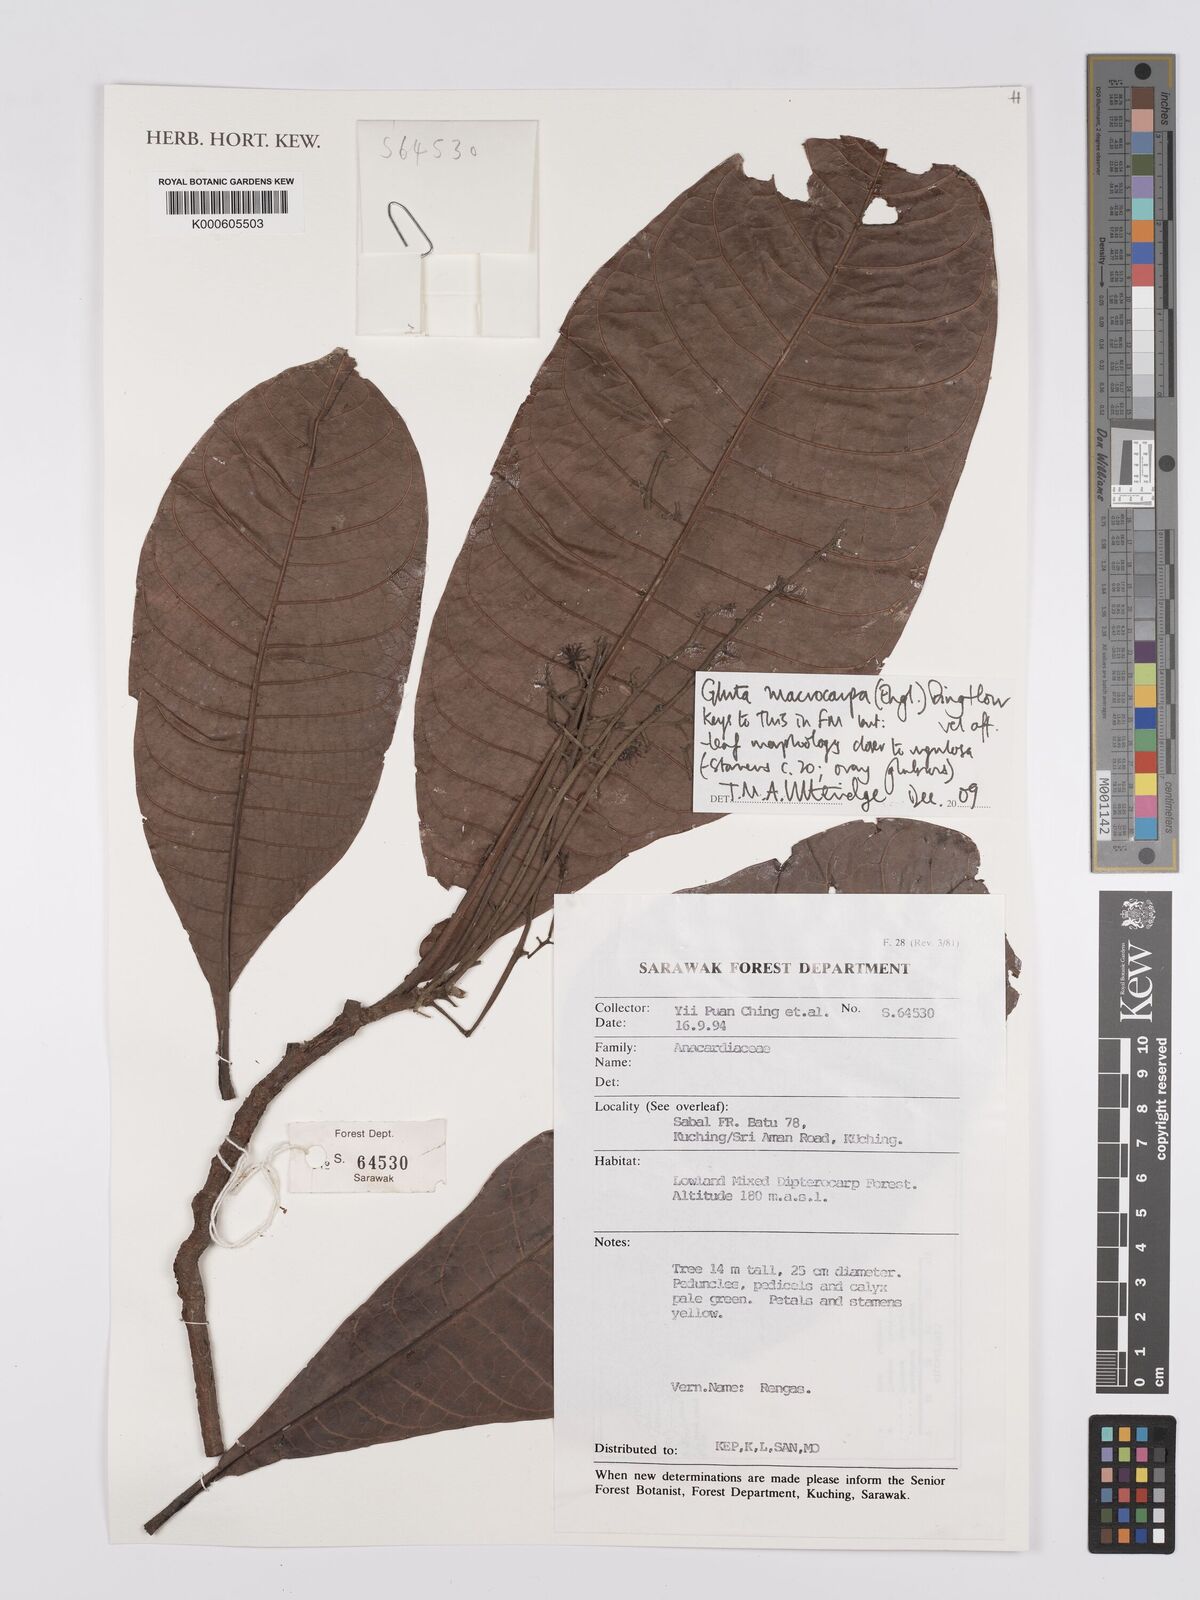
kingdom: Plantae
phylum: Tracheophyta
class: Magnoliopsida
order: Sapindales
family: Anacardiaceae
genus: Gluta
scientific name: Gluta macrocarpa
